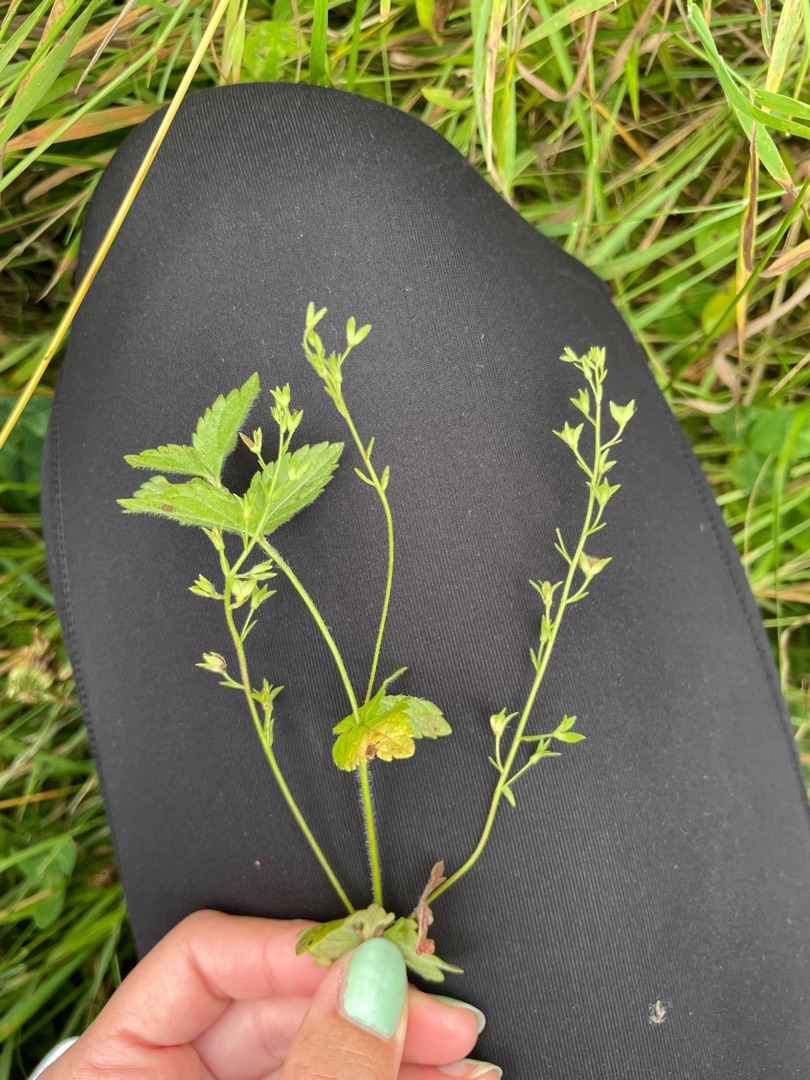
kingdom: Plantae
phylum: Tracheophyta
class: Magnoliopsida
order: Lamiales
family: Plantaginaceae
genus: Veronica
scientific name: Veronica chamaedrys
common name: Tveskægget ærenpris
